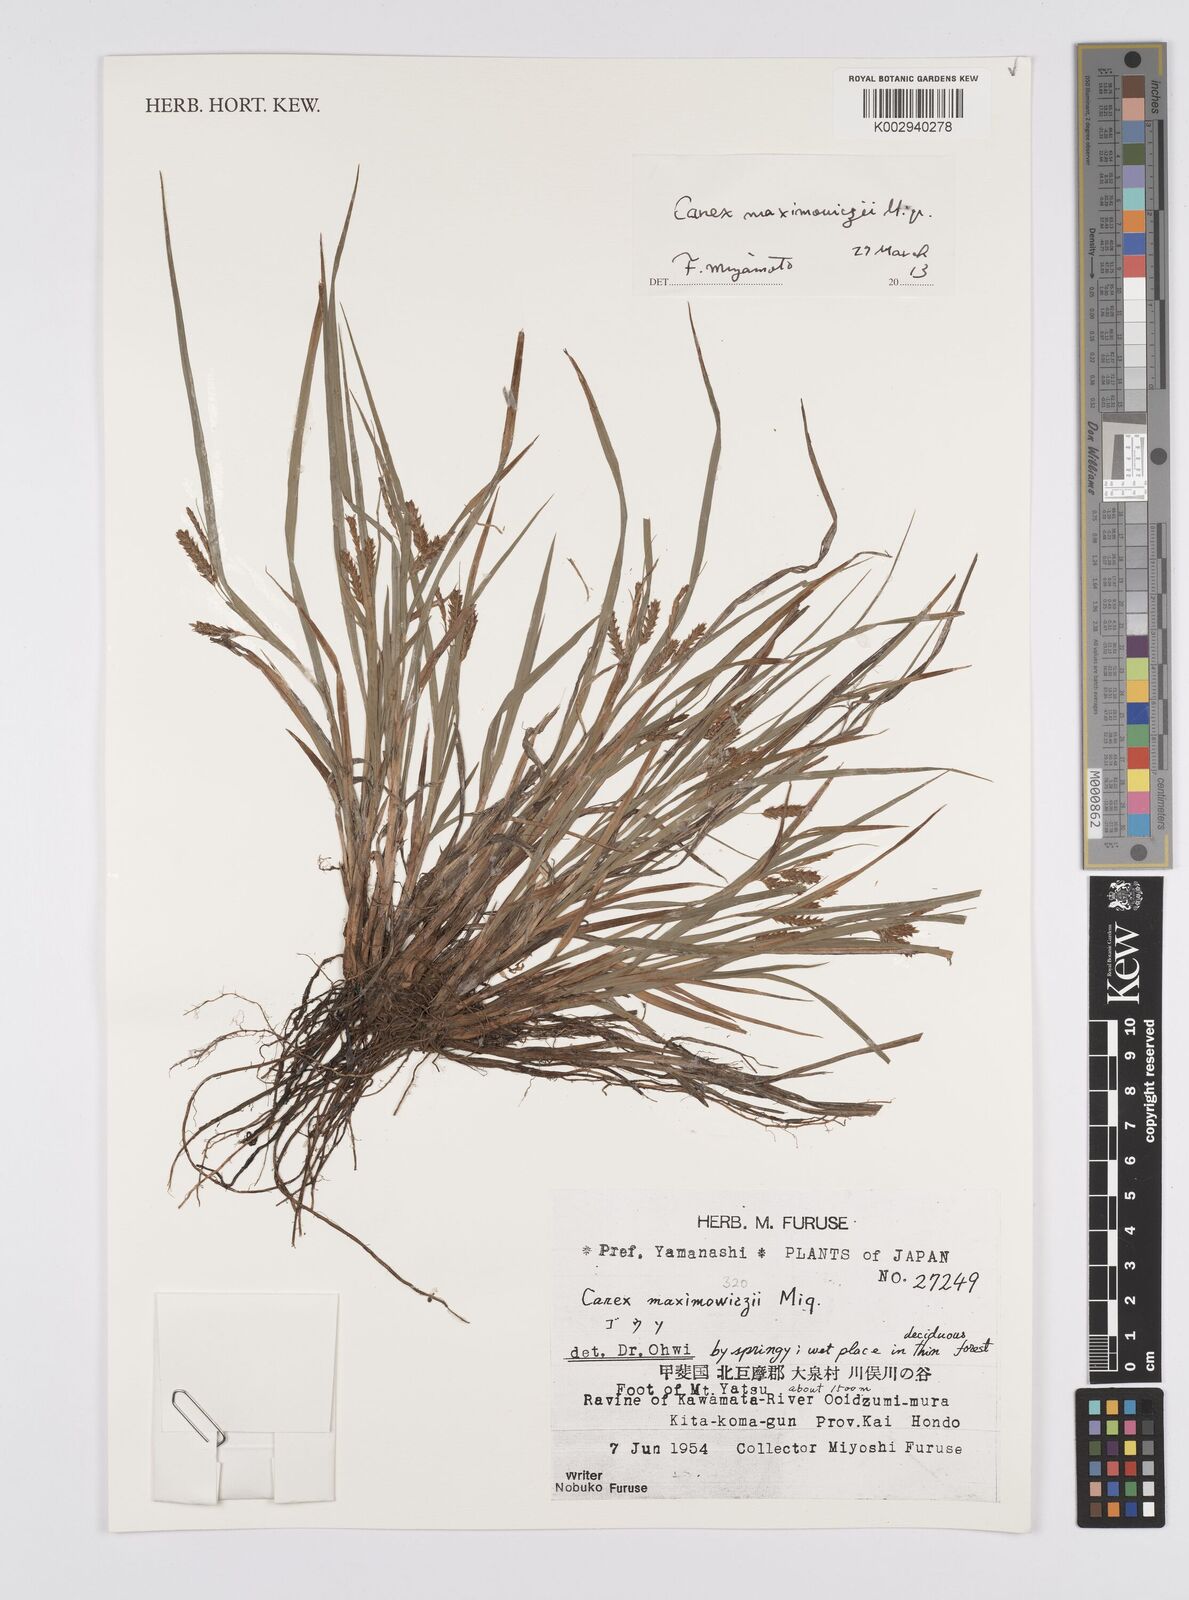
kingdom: Plantae
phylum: Tracheophyta
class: Liliopsida
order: Poales
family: Cyperaceae
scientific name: Cyperaceae
